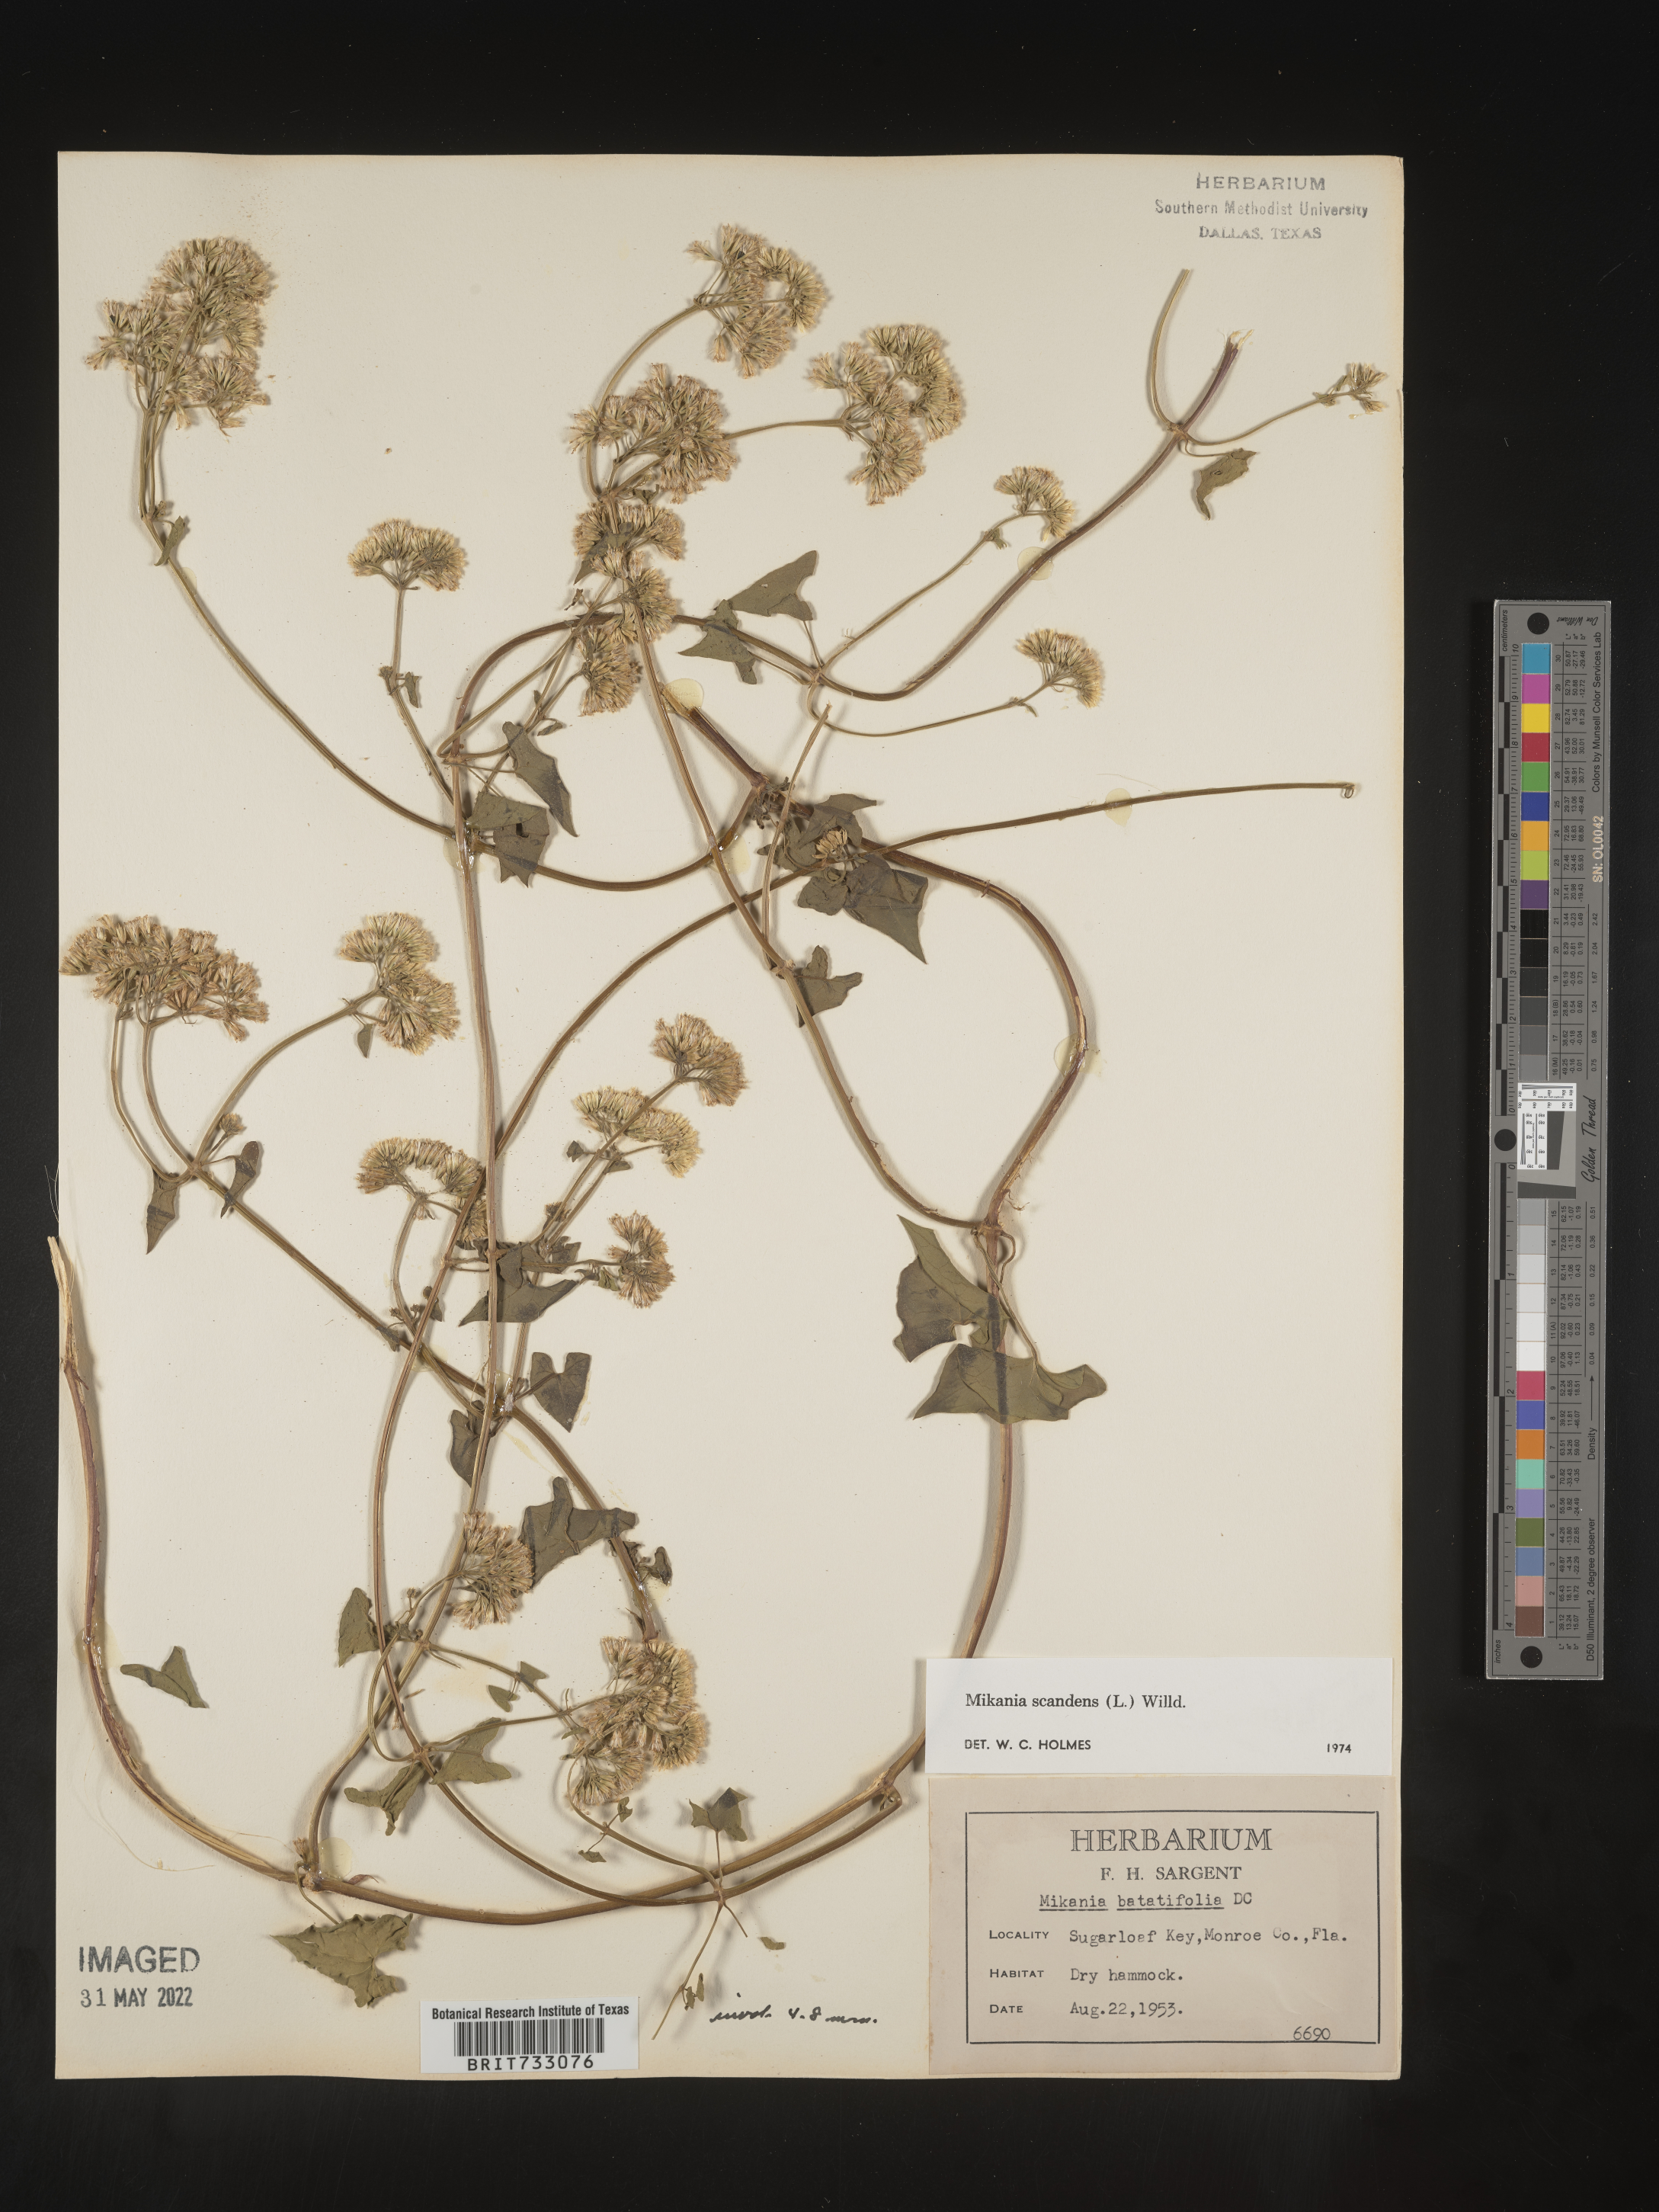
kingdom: Plantae
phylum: Tracheophyta
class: Magnoliopsida
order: Asterales
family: Asteraceae
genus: Mikania
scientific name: Mikania scandens
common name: Climbing hempvine
